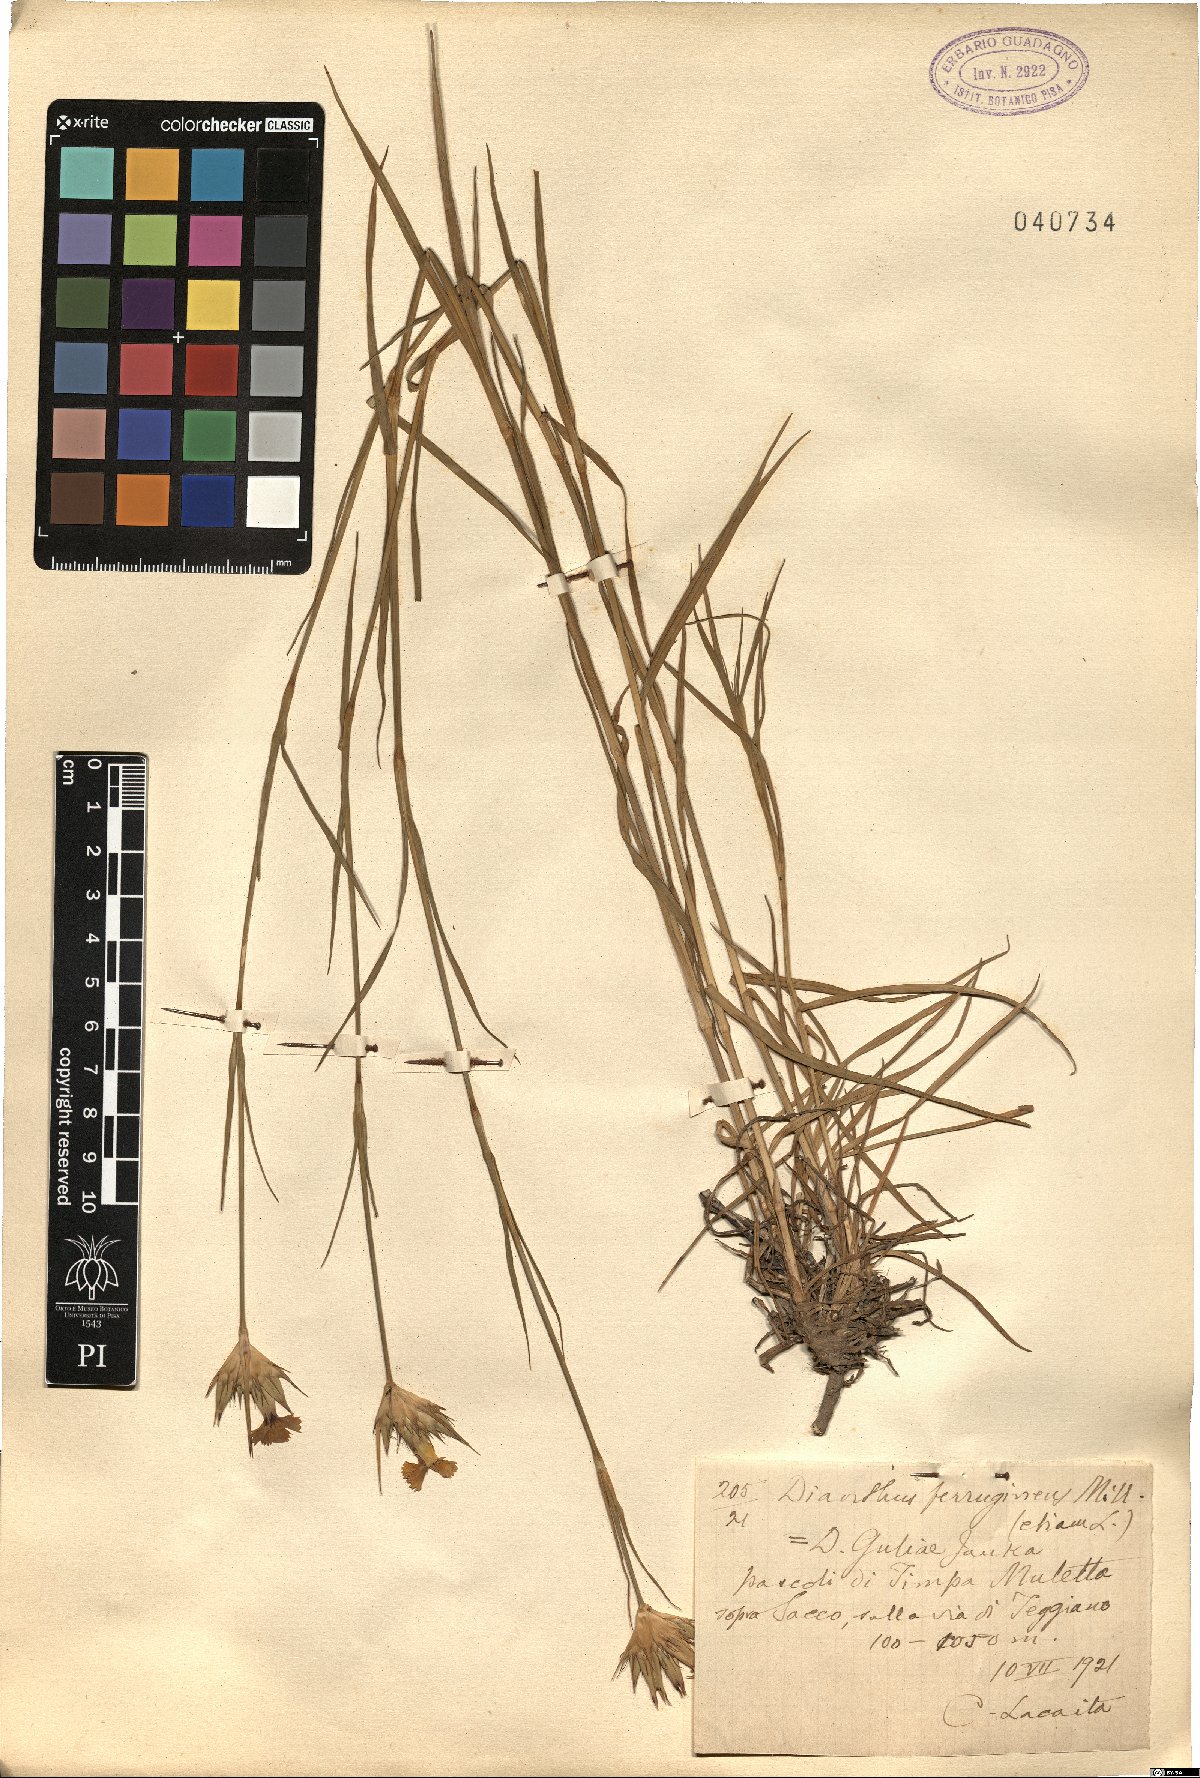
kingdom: Plantae
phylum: Tracheophyta
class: Magnoliopsida
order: Caryophyllales
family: Caryophyllaceae
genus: Dianthus
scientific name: Dianthus crassipes
